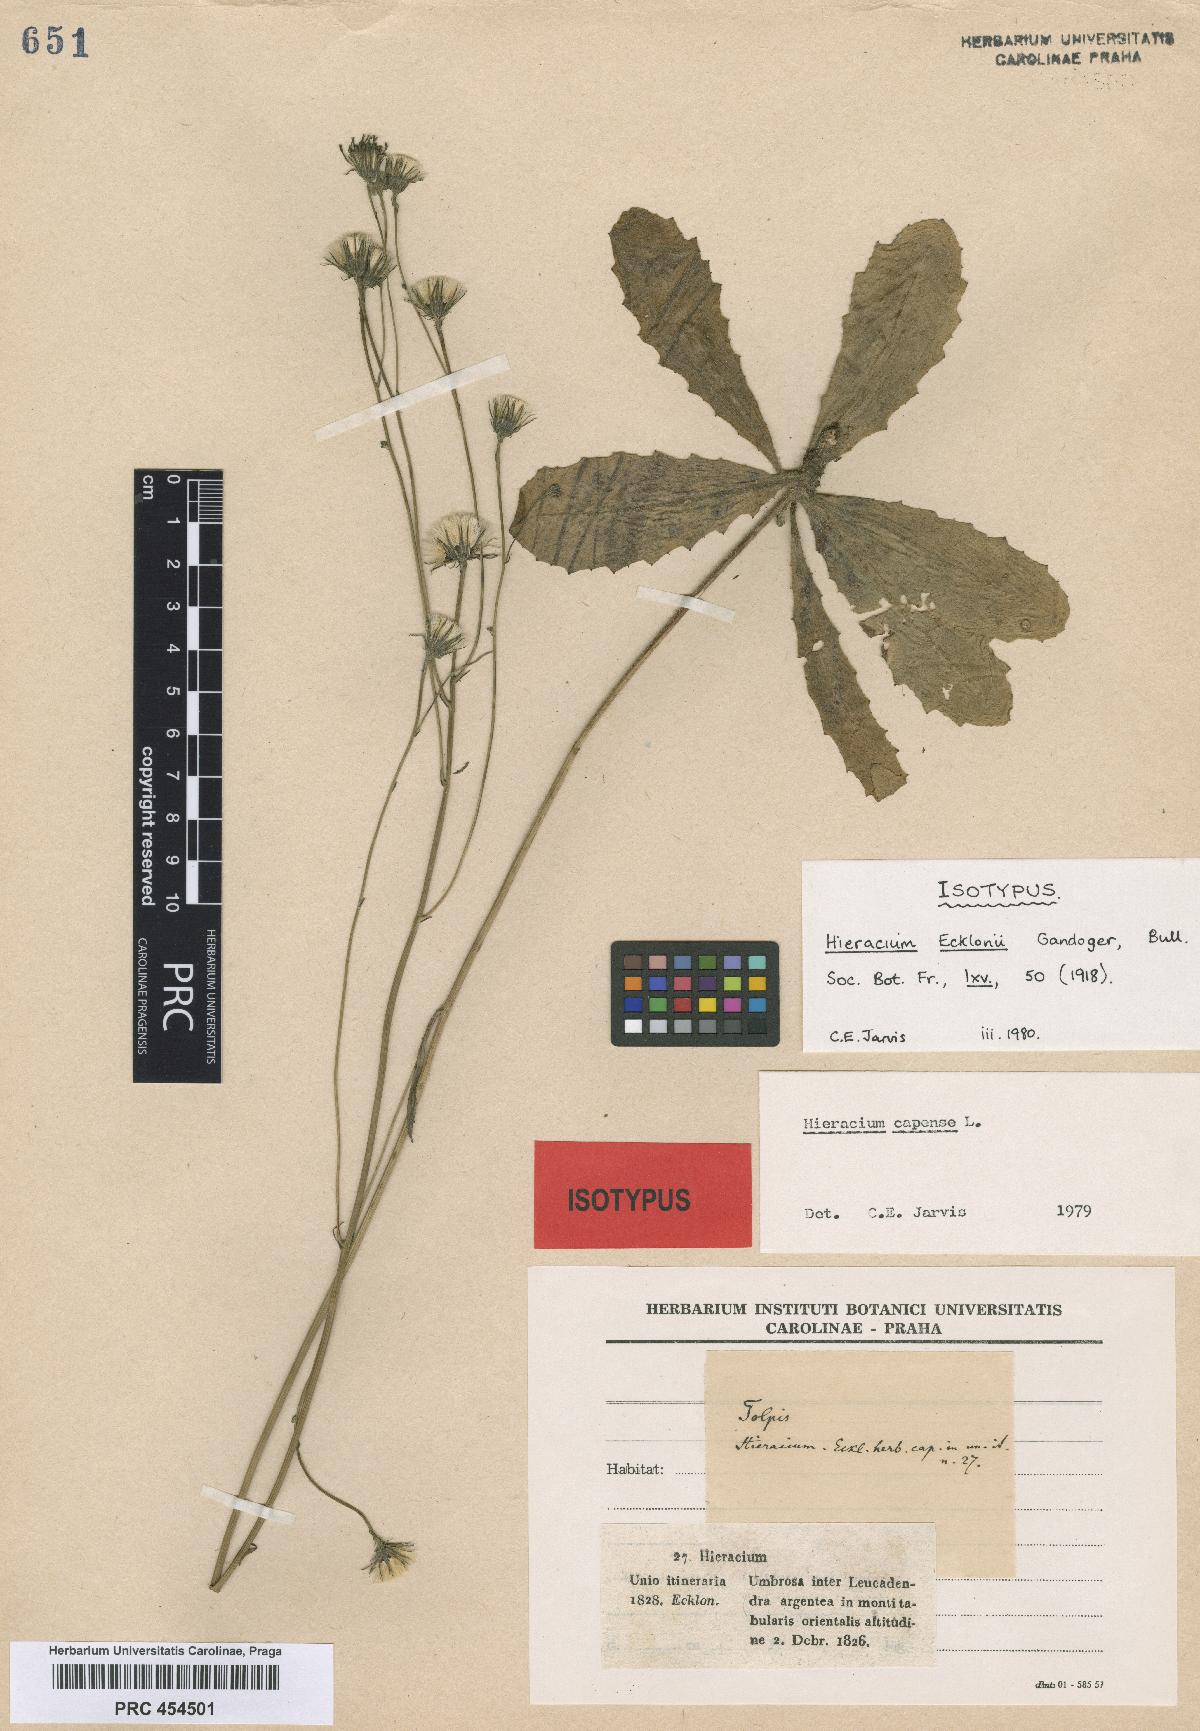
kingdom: Plantae
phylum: Tracheophyta
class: Magnoliopsida
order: Asterales
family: Asteraceae
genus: Hieracium
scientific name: Hieracium ecklonii
